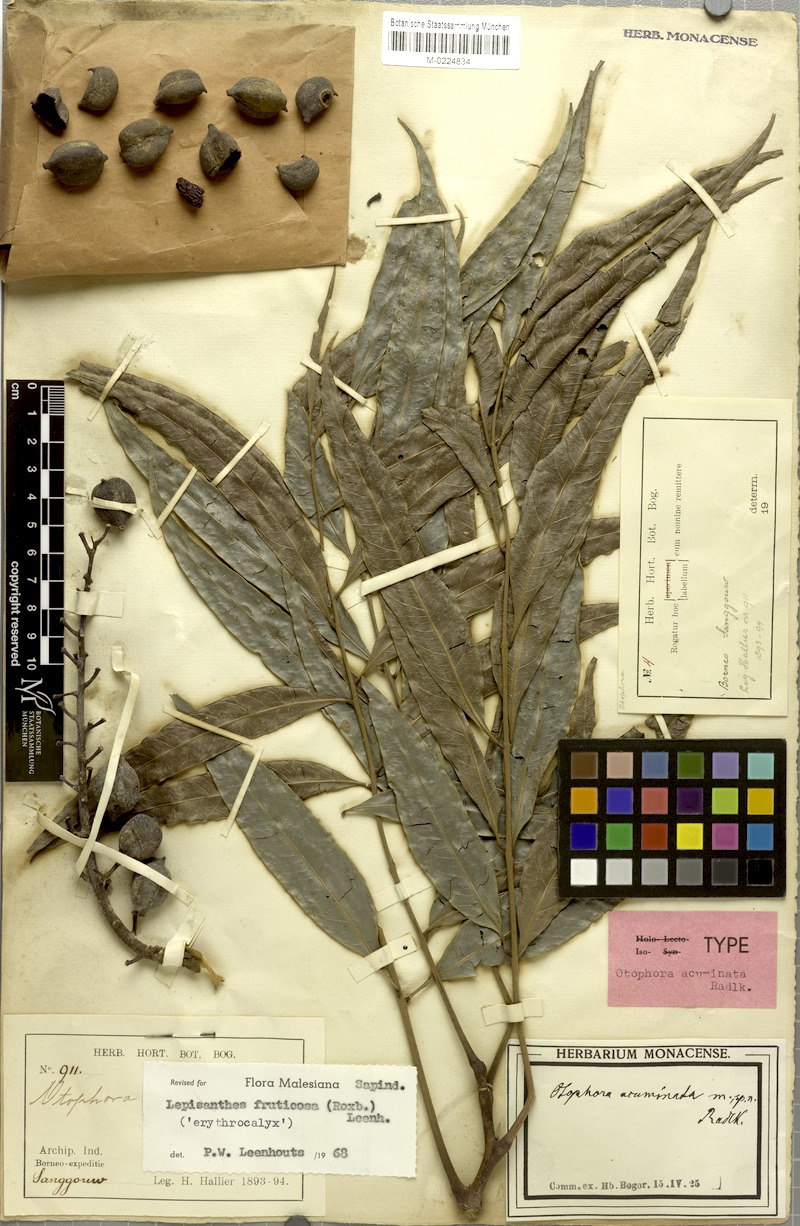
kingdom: Plantae
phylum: Tracheophyta
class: Magnoliopsida
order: Sapindales
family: Sapindaceae
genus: Lepisanthes
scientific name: Lepisanthes fruticosa
